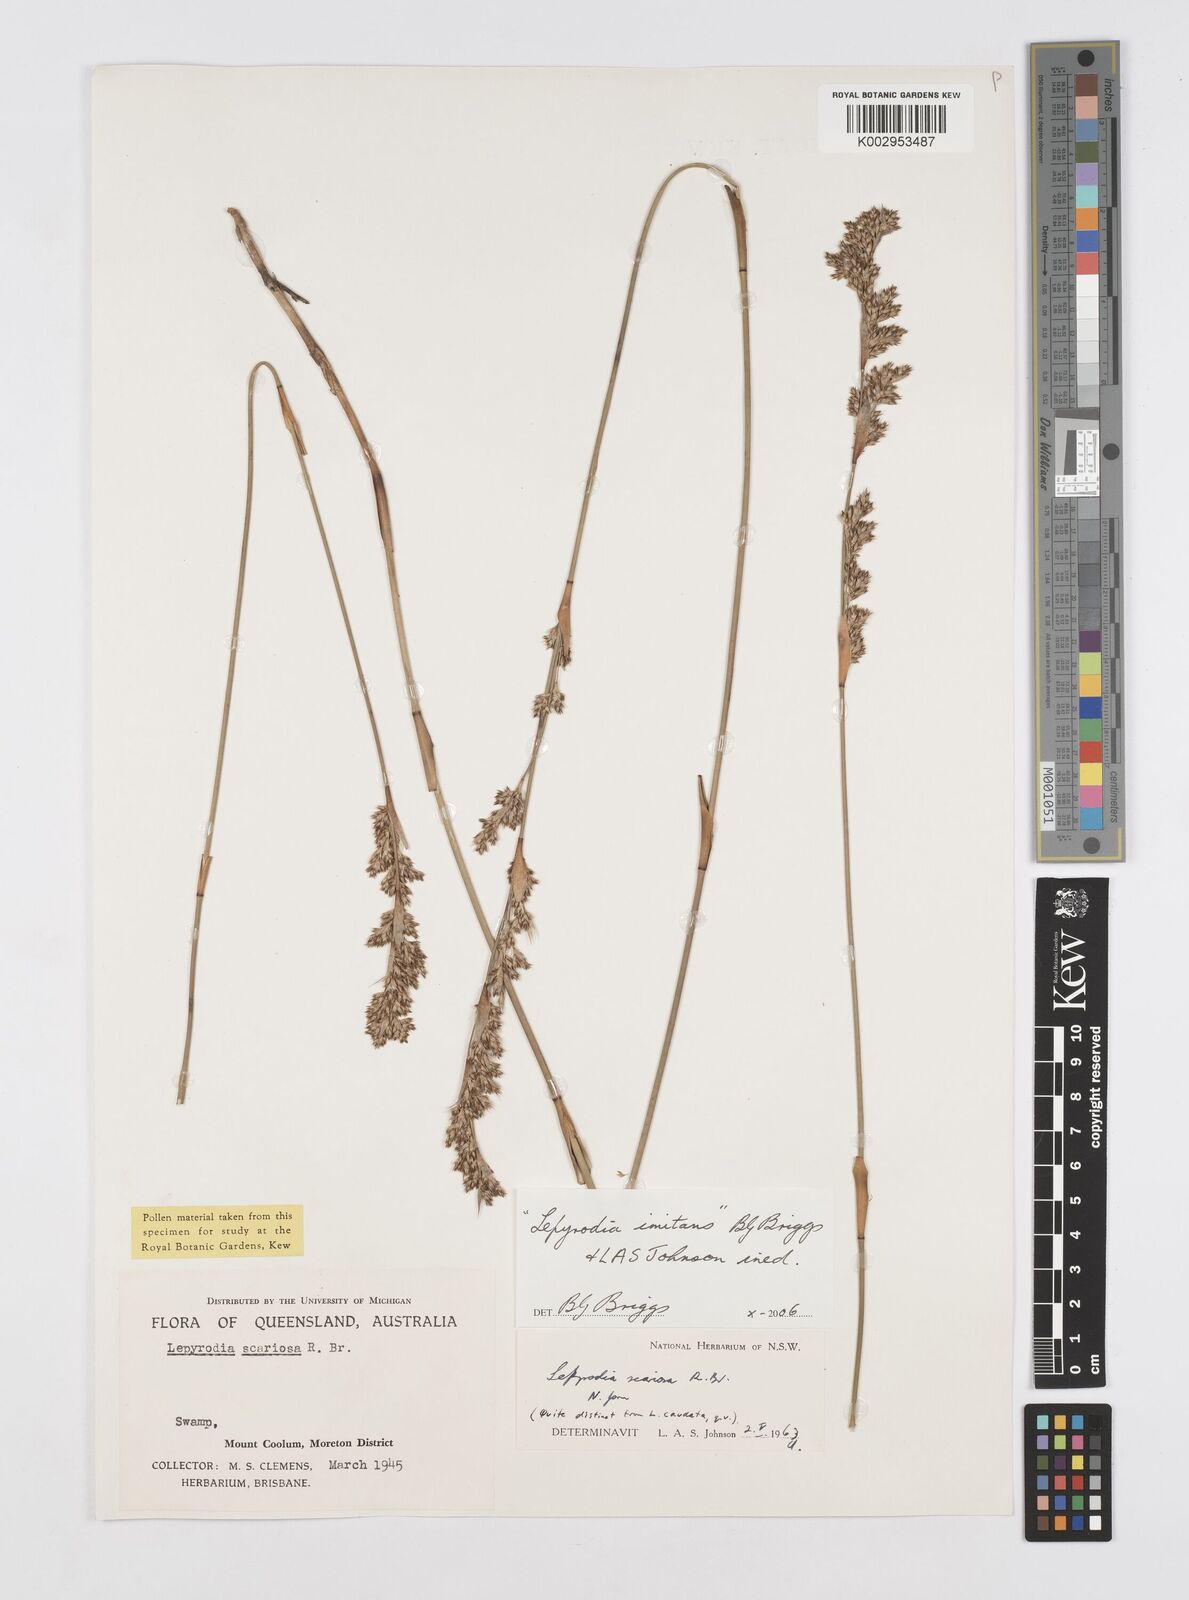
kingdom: Plantae
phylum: Tracheophyta
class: Liliopsida
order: Poales
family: Restionaceae
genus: Lepyrodia
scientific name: Lepyrodia imitans
